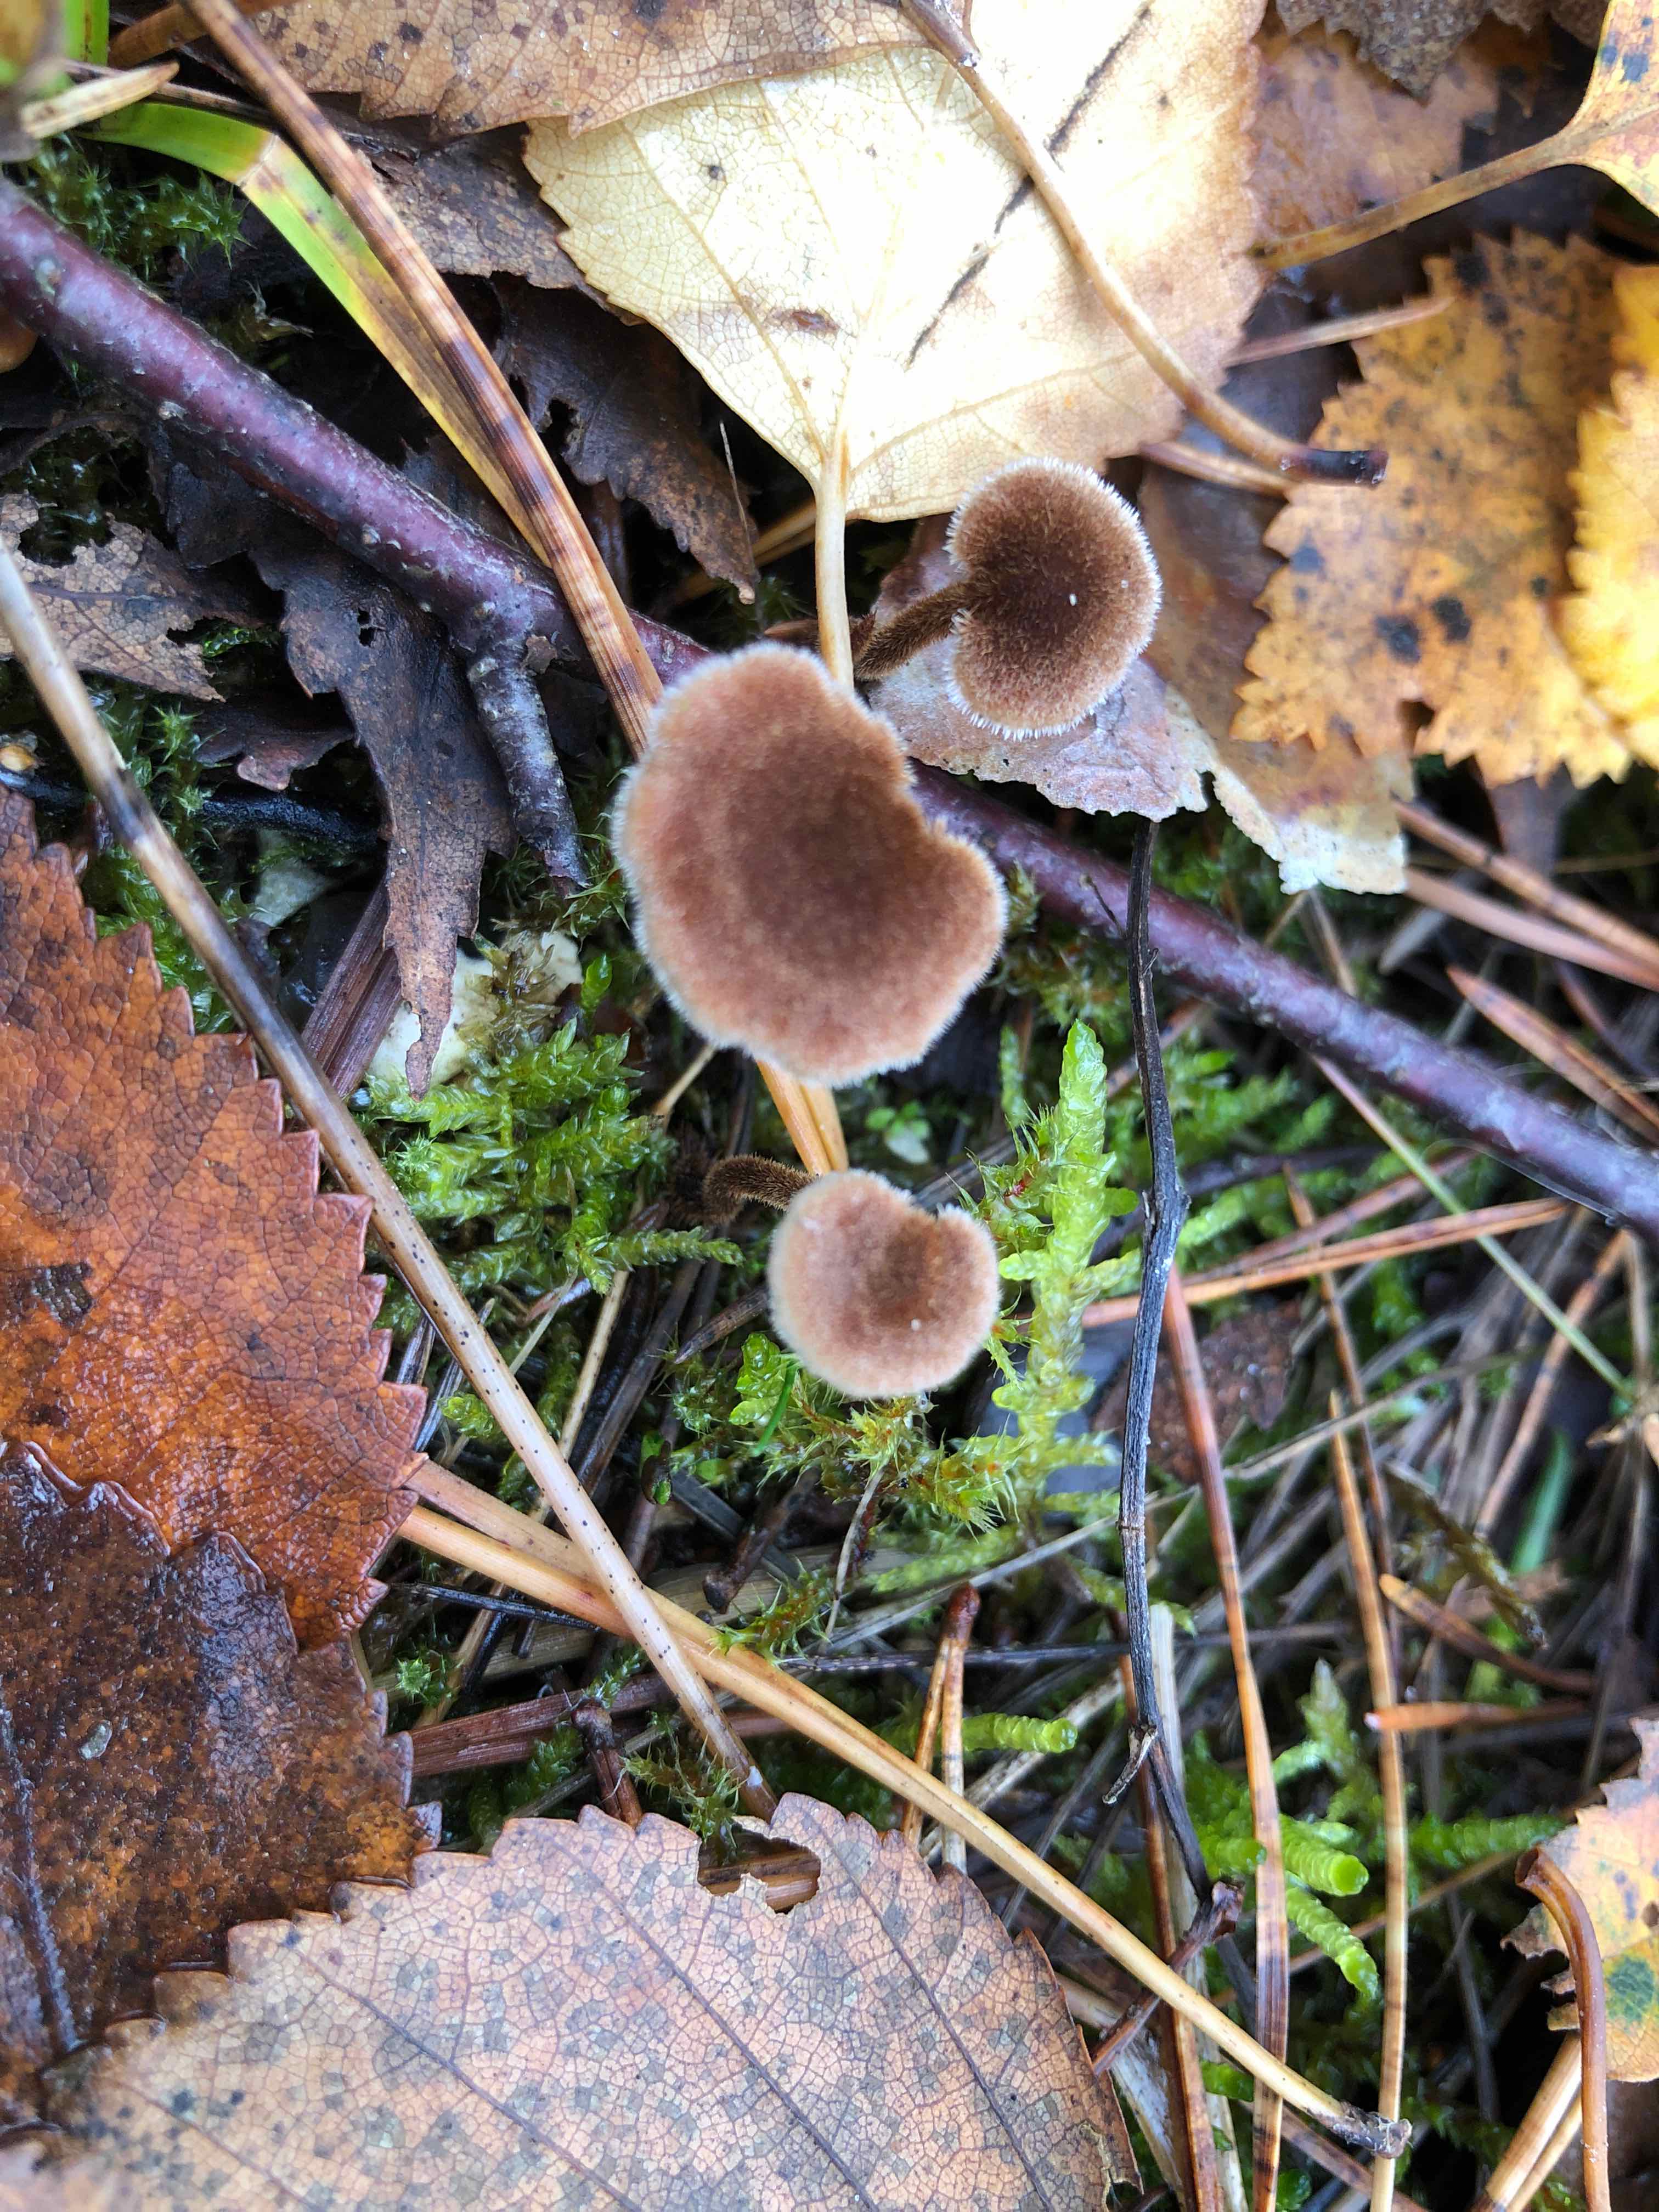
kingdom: Fungi
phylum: Basidiomycota
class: Agaricomycetes
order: Russulales
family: Auriscalpiaceae
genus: Auriscalpium
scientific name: Auriscalpium vulgare
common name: koglepigsvamp
